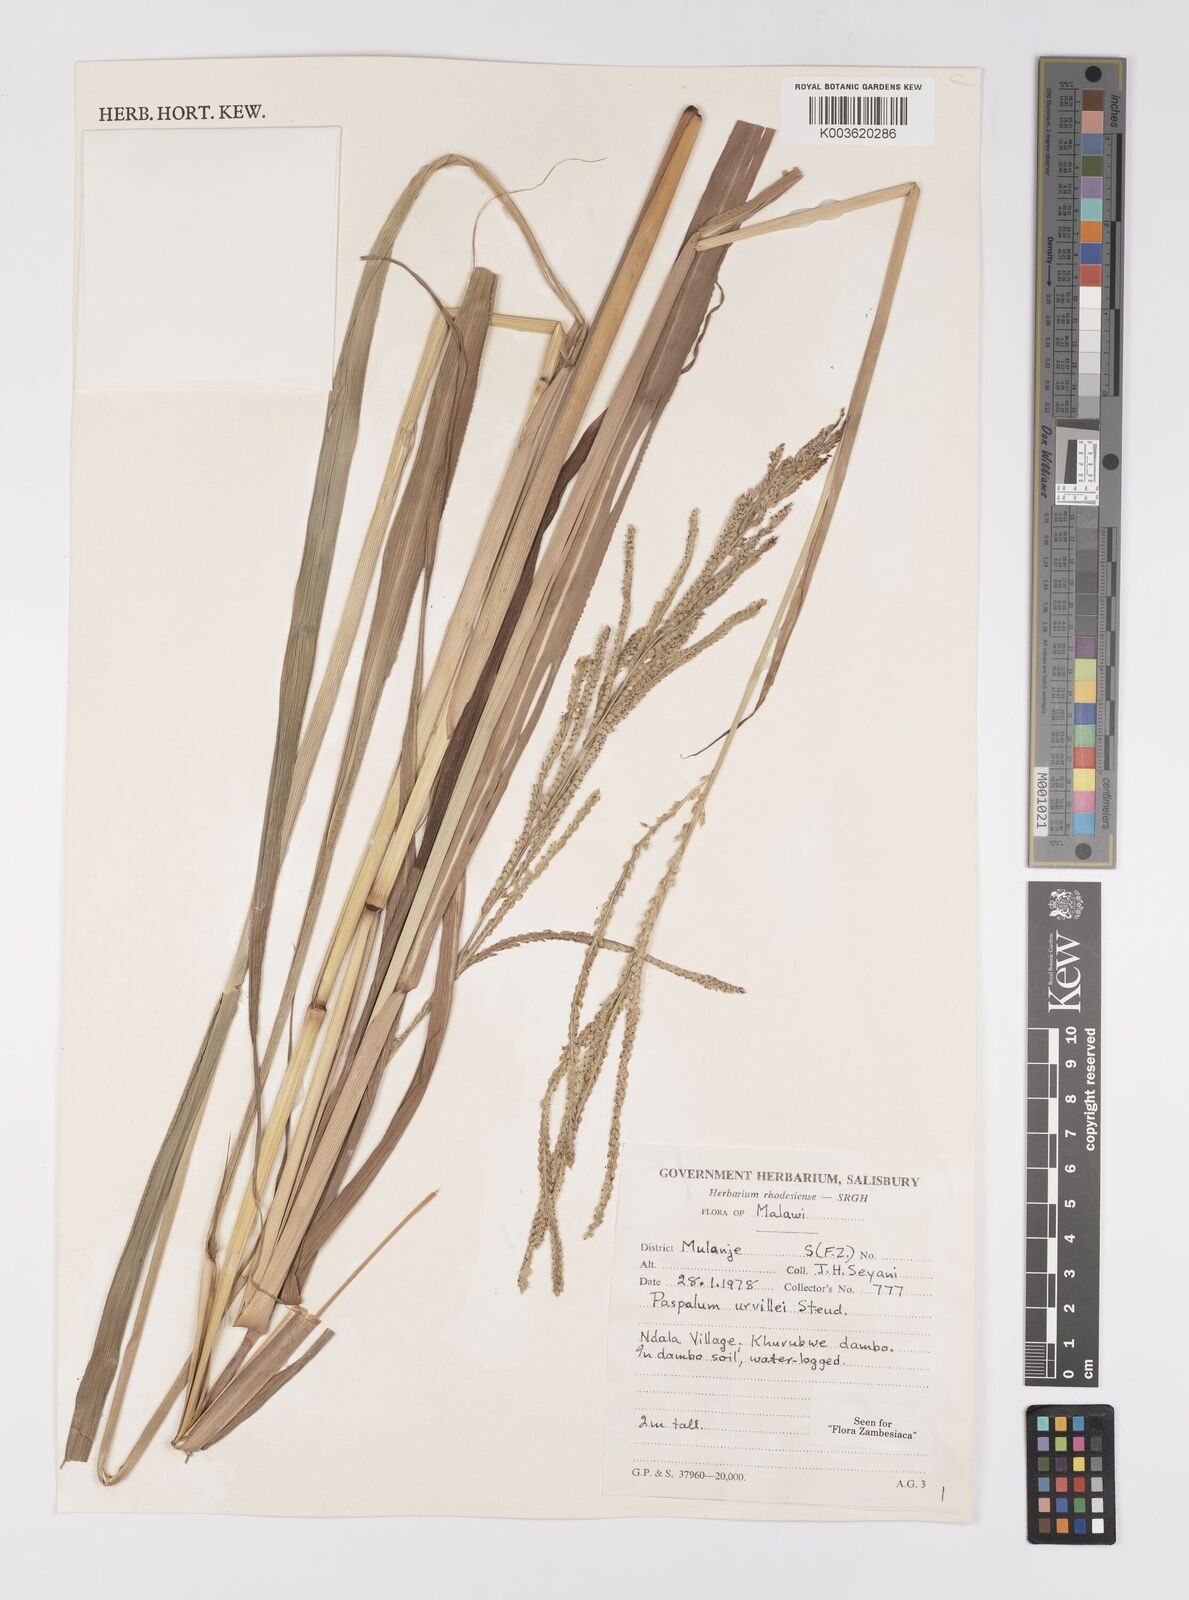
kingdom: Plantae
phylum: Tracheophyta
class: Liliopsida
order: Poales
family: Poaceae
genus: Paspalum
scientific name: Paspalum urvillei
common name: Vasey's grass
